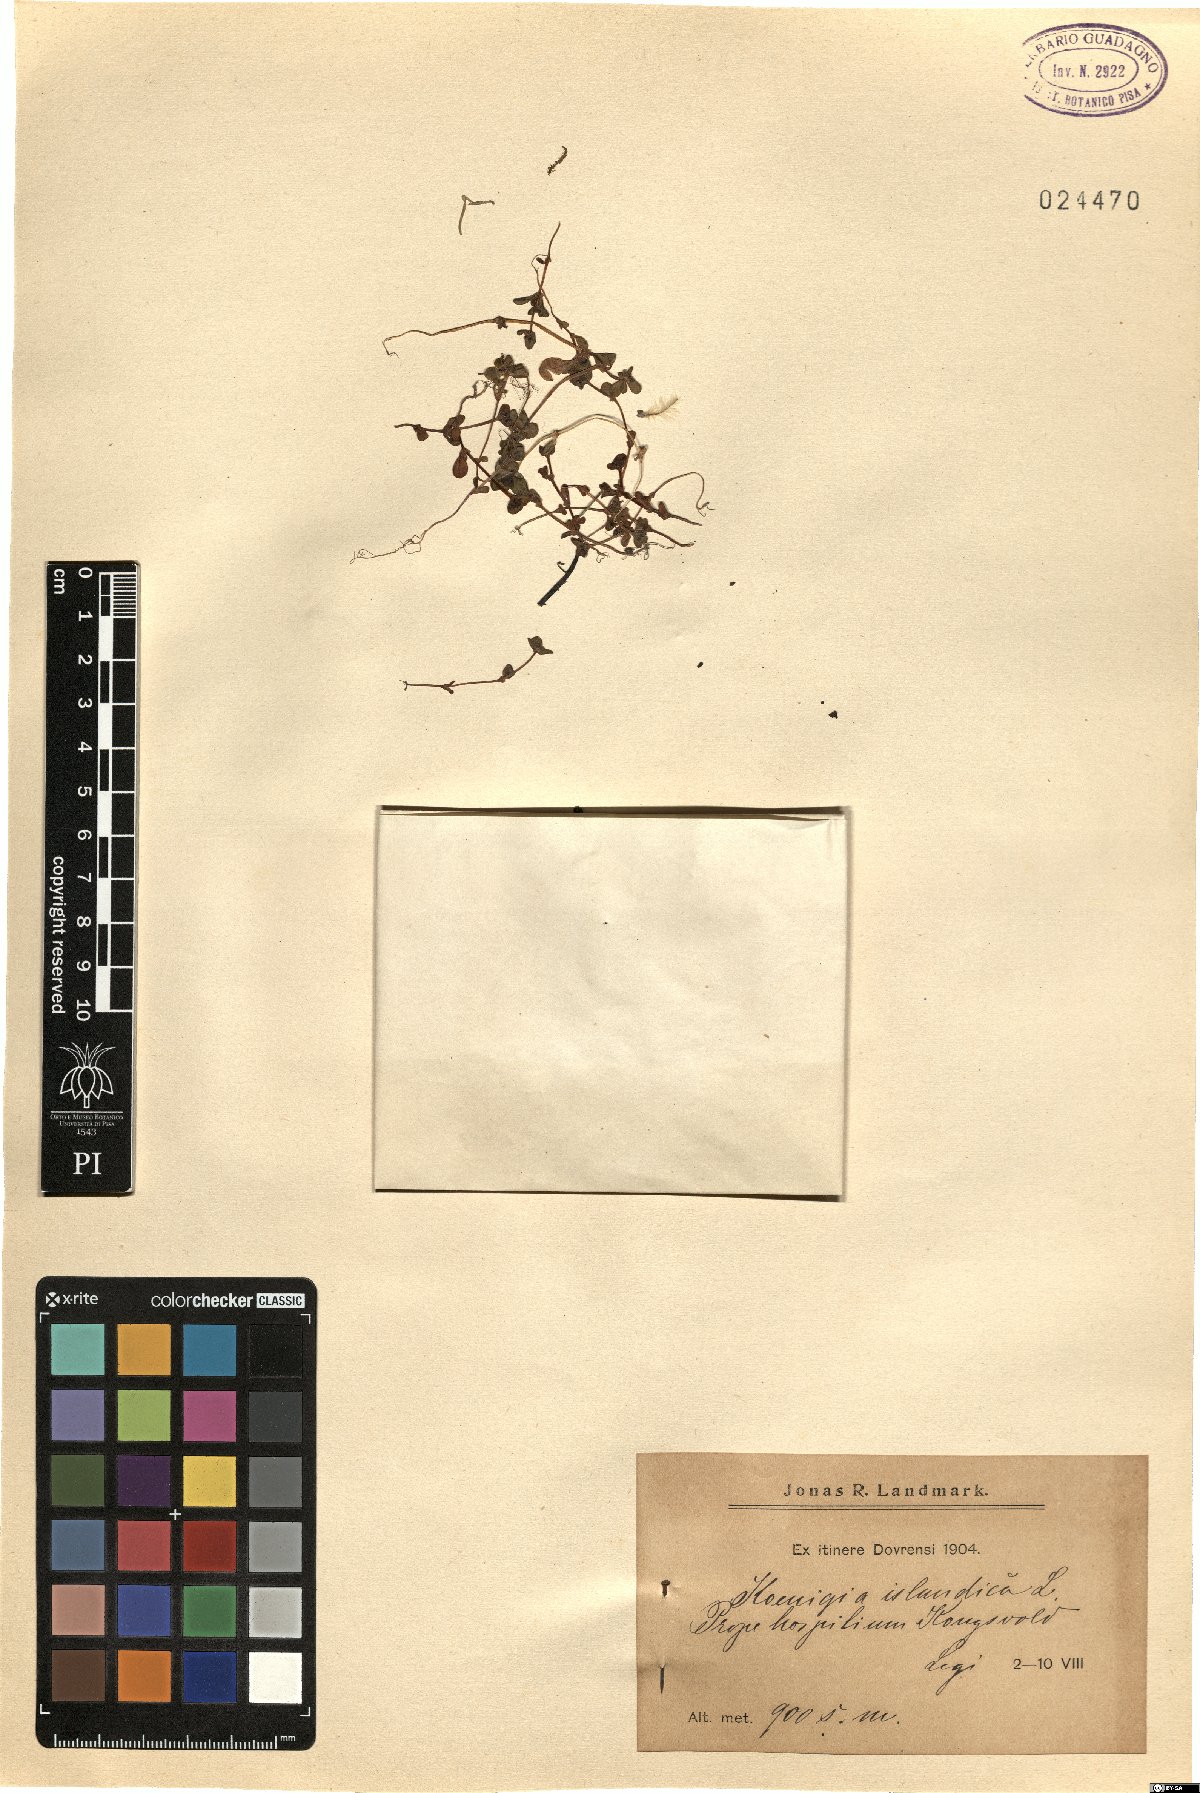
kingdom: Plantae
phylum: Tracheophyta
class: Magnoliopsida
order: Caryophyllales
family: Polygonaceae
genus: Koenigia
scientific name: Koenigia islandica
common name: Iceland-purslane
